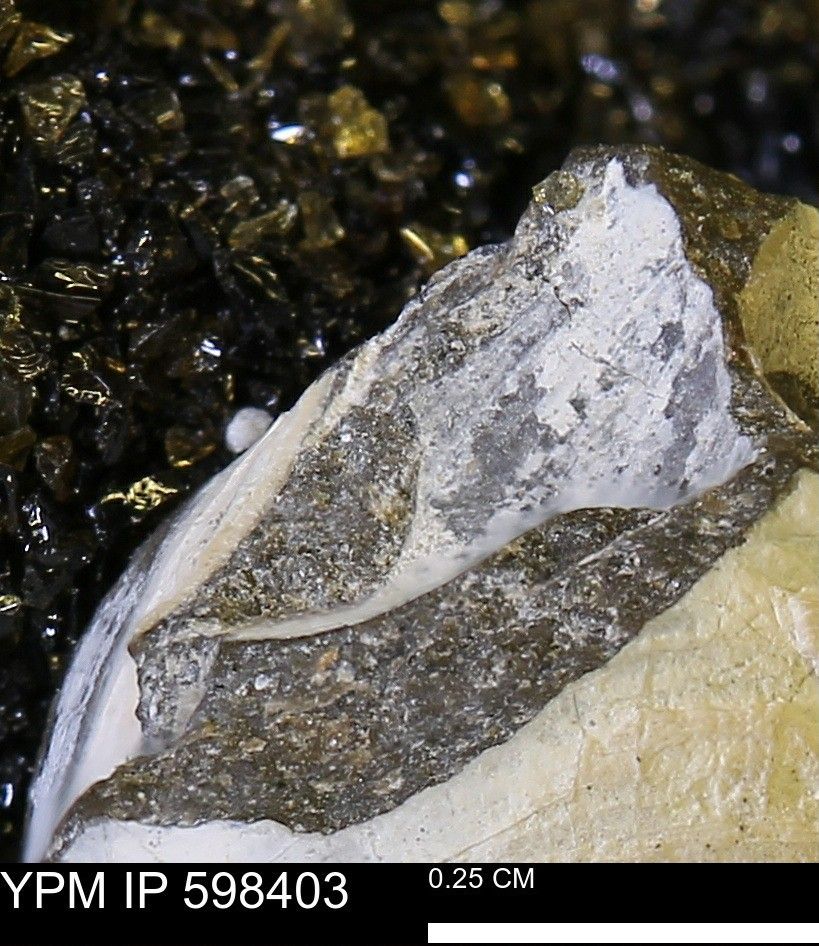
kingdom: Animalia
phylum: Mollusca
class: Bivalvia
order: Arcida
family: Limopsidae
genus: Limopsis
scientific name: Limopsis
